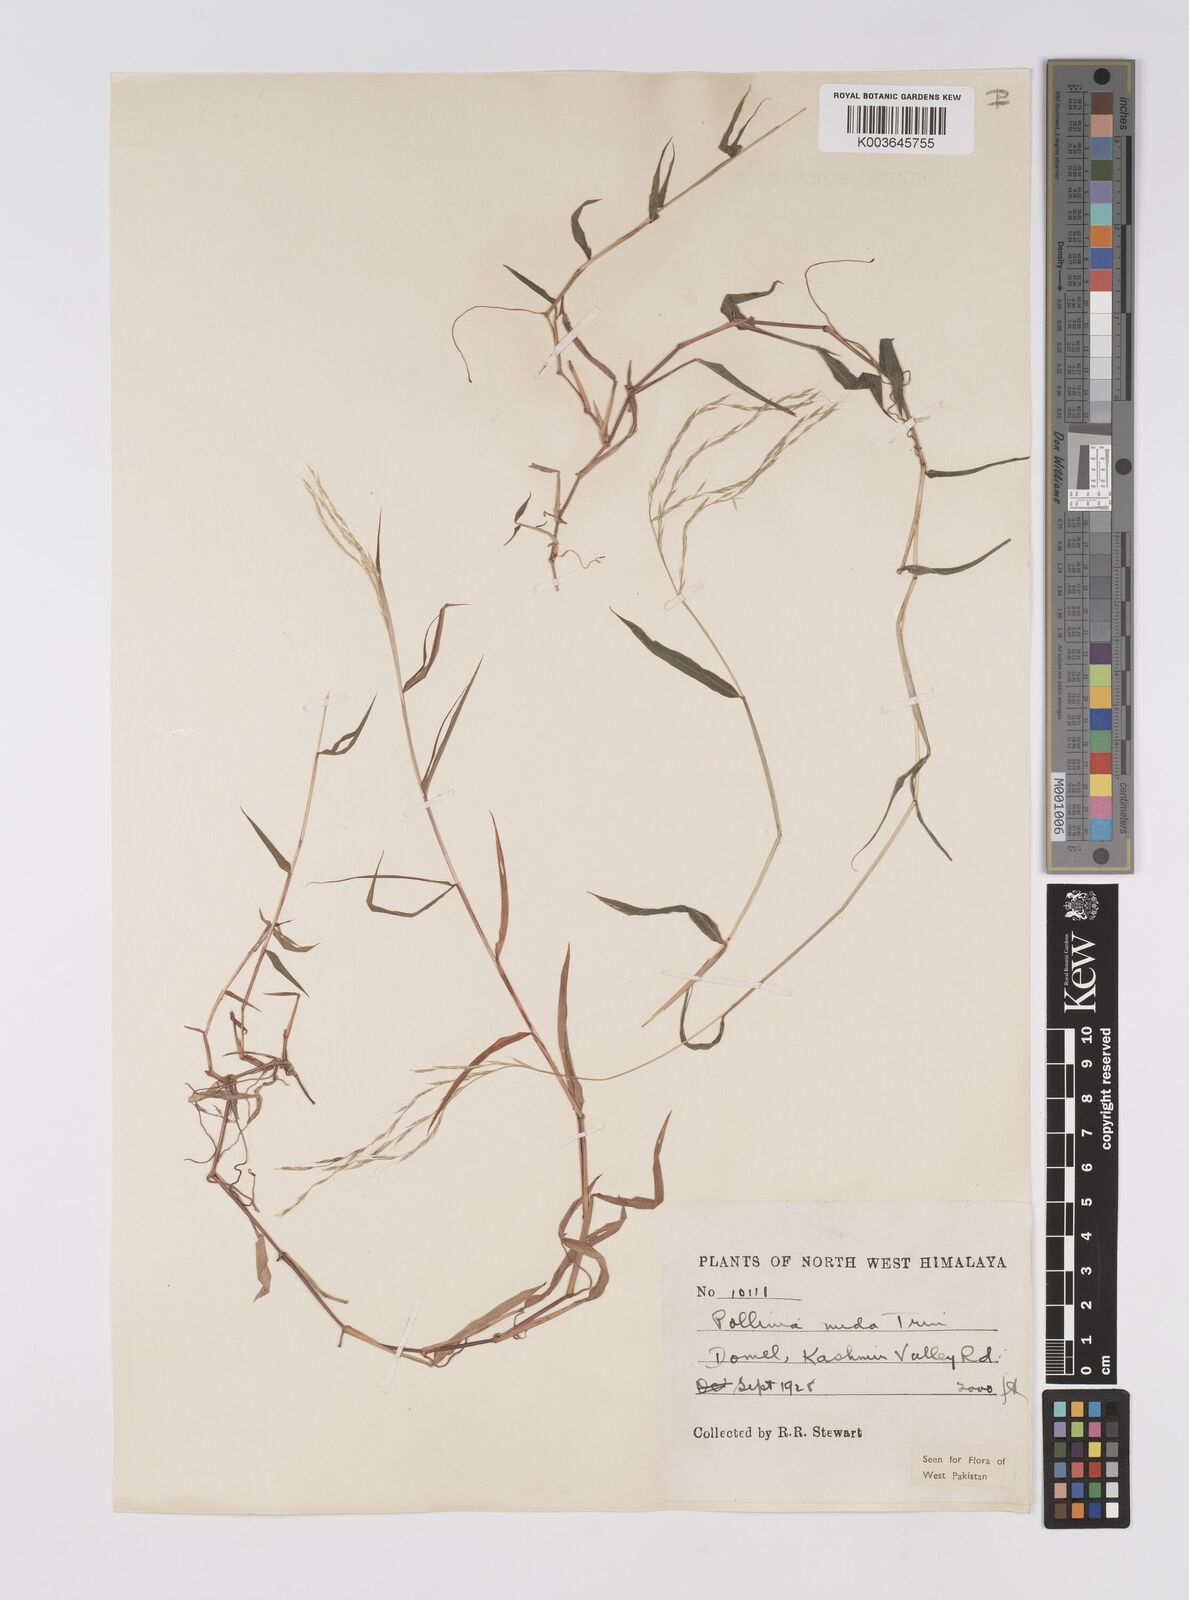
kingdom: Plantae
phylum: Tracheophyta
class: Liliopsida
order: Poales
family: Poaceae
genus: Microstegium
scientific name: Microstegium nudum
